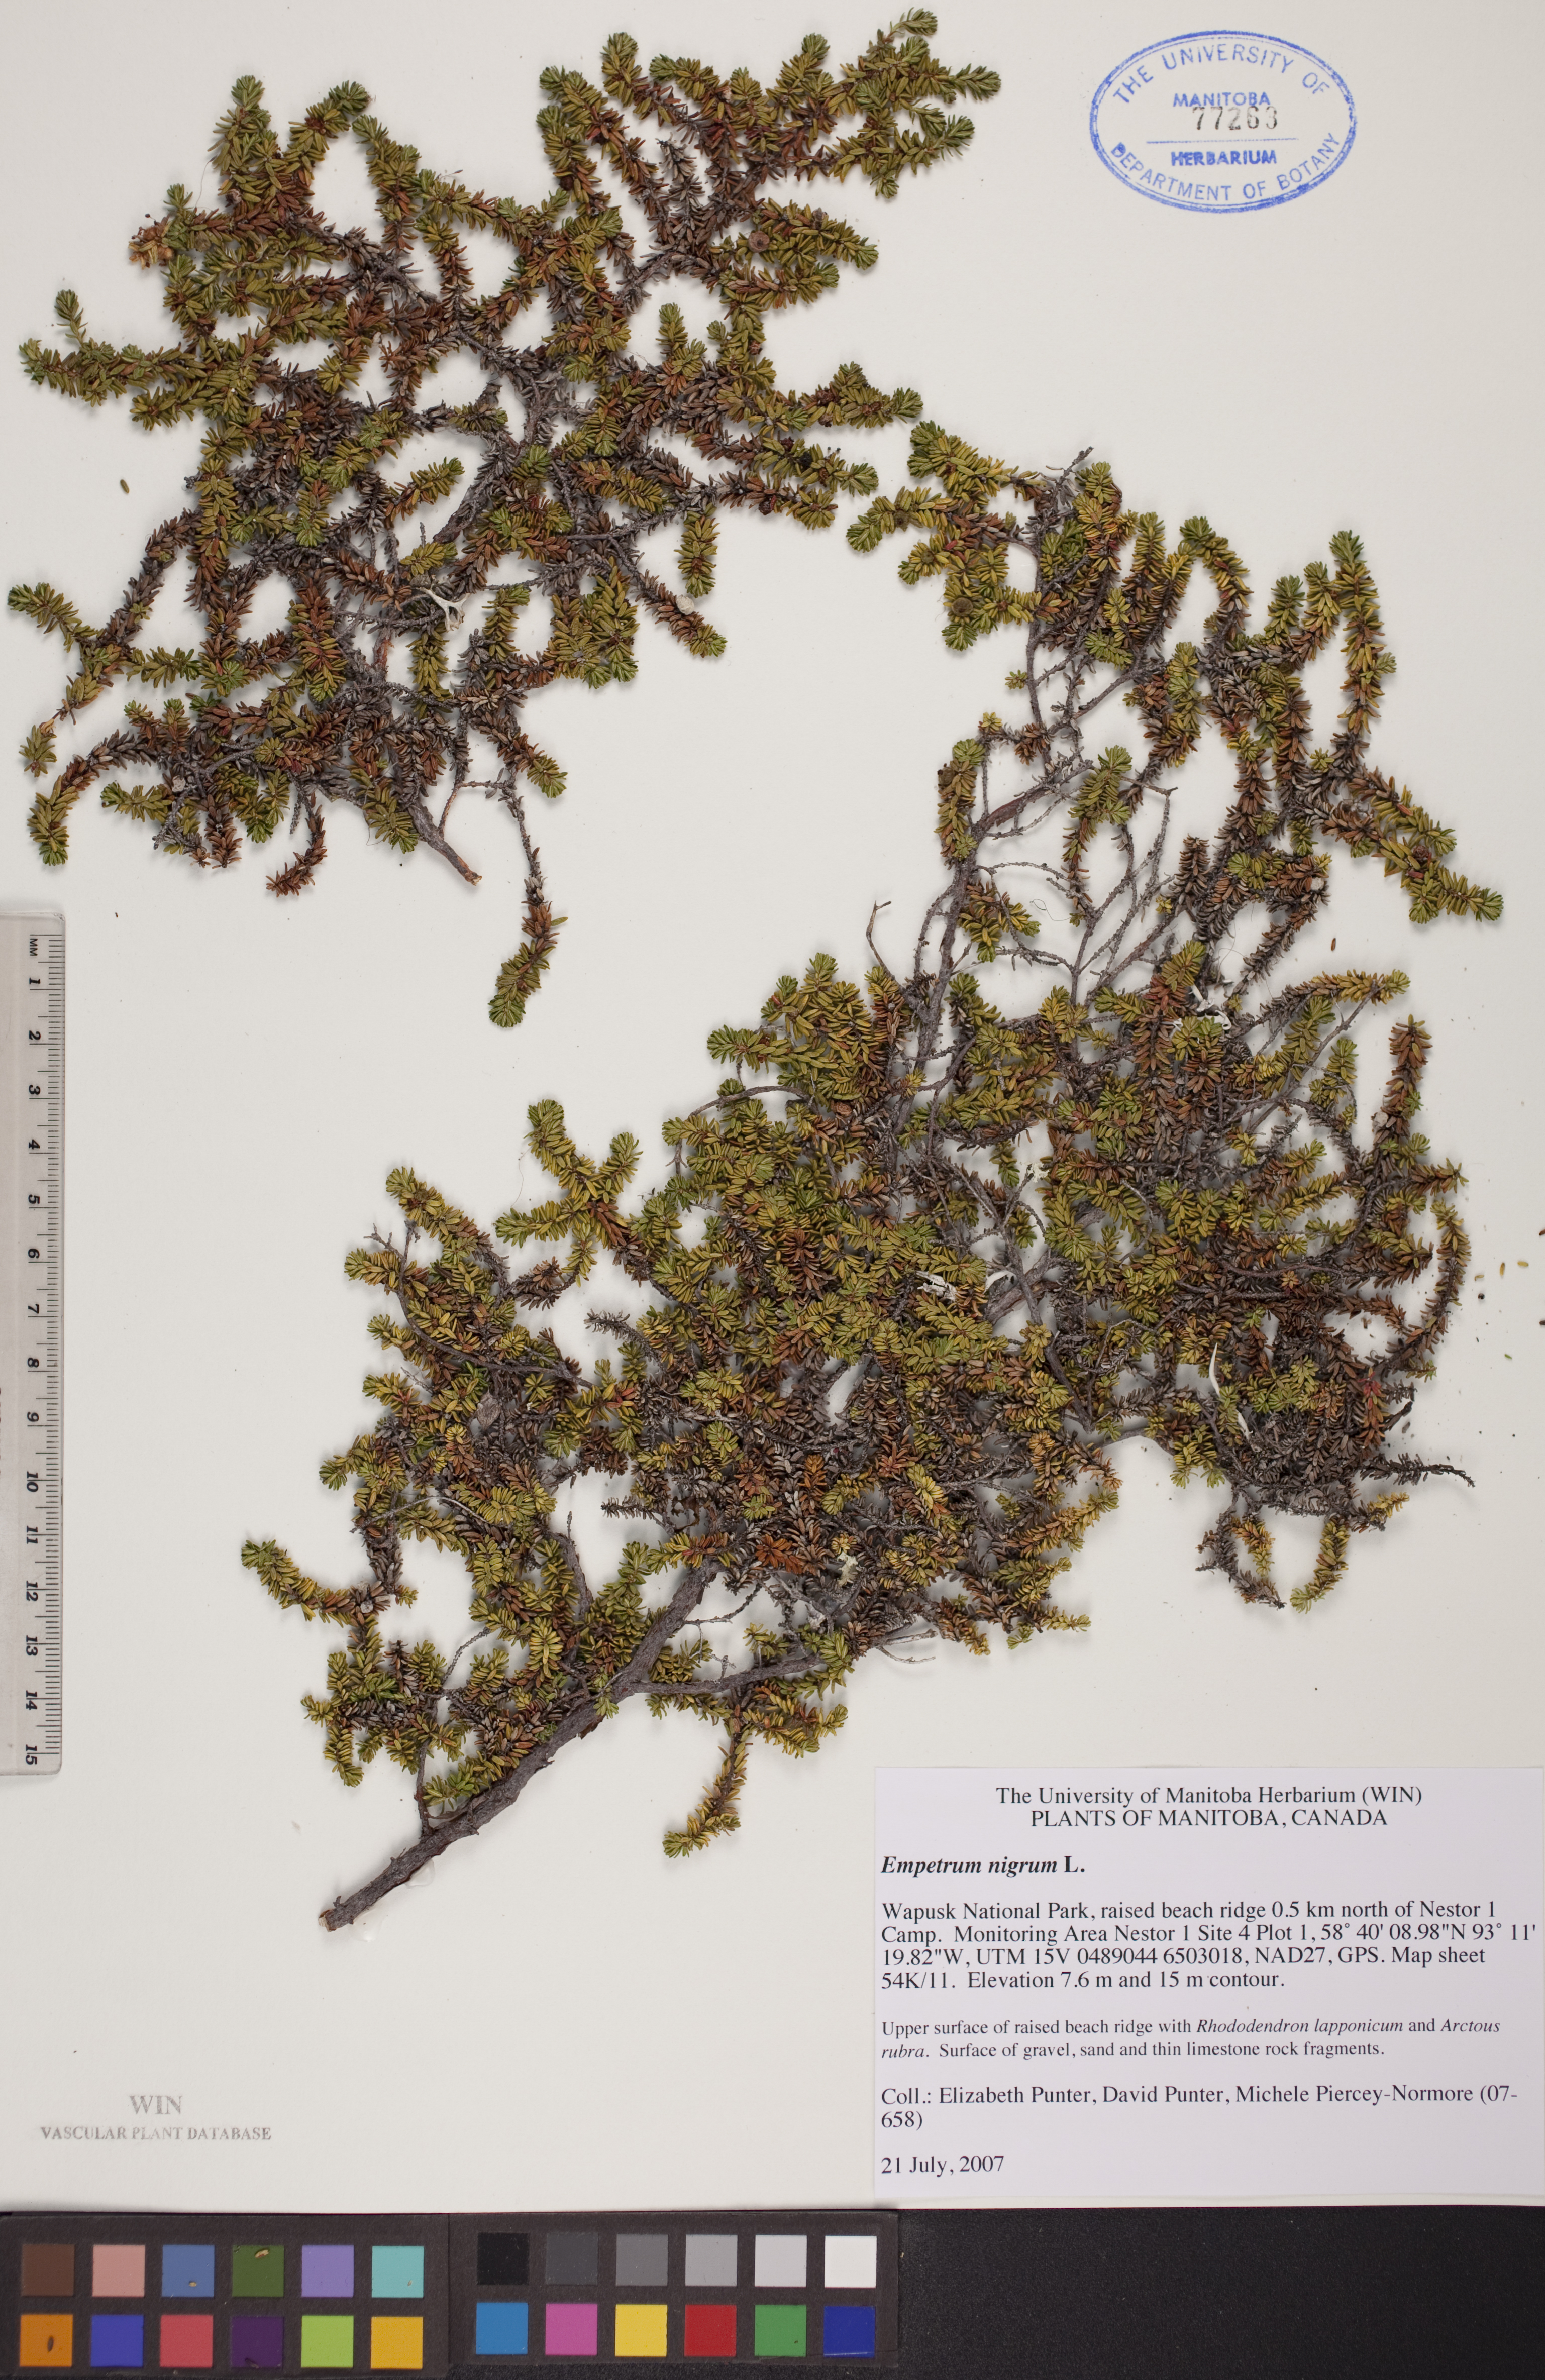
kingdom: Plantae
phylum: Tracheophyta
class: Magnoliopsida
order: Ericales
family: Ericaceae
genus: Empetrum
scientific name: Empetrum nigrum
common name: Black crowberry
